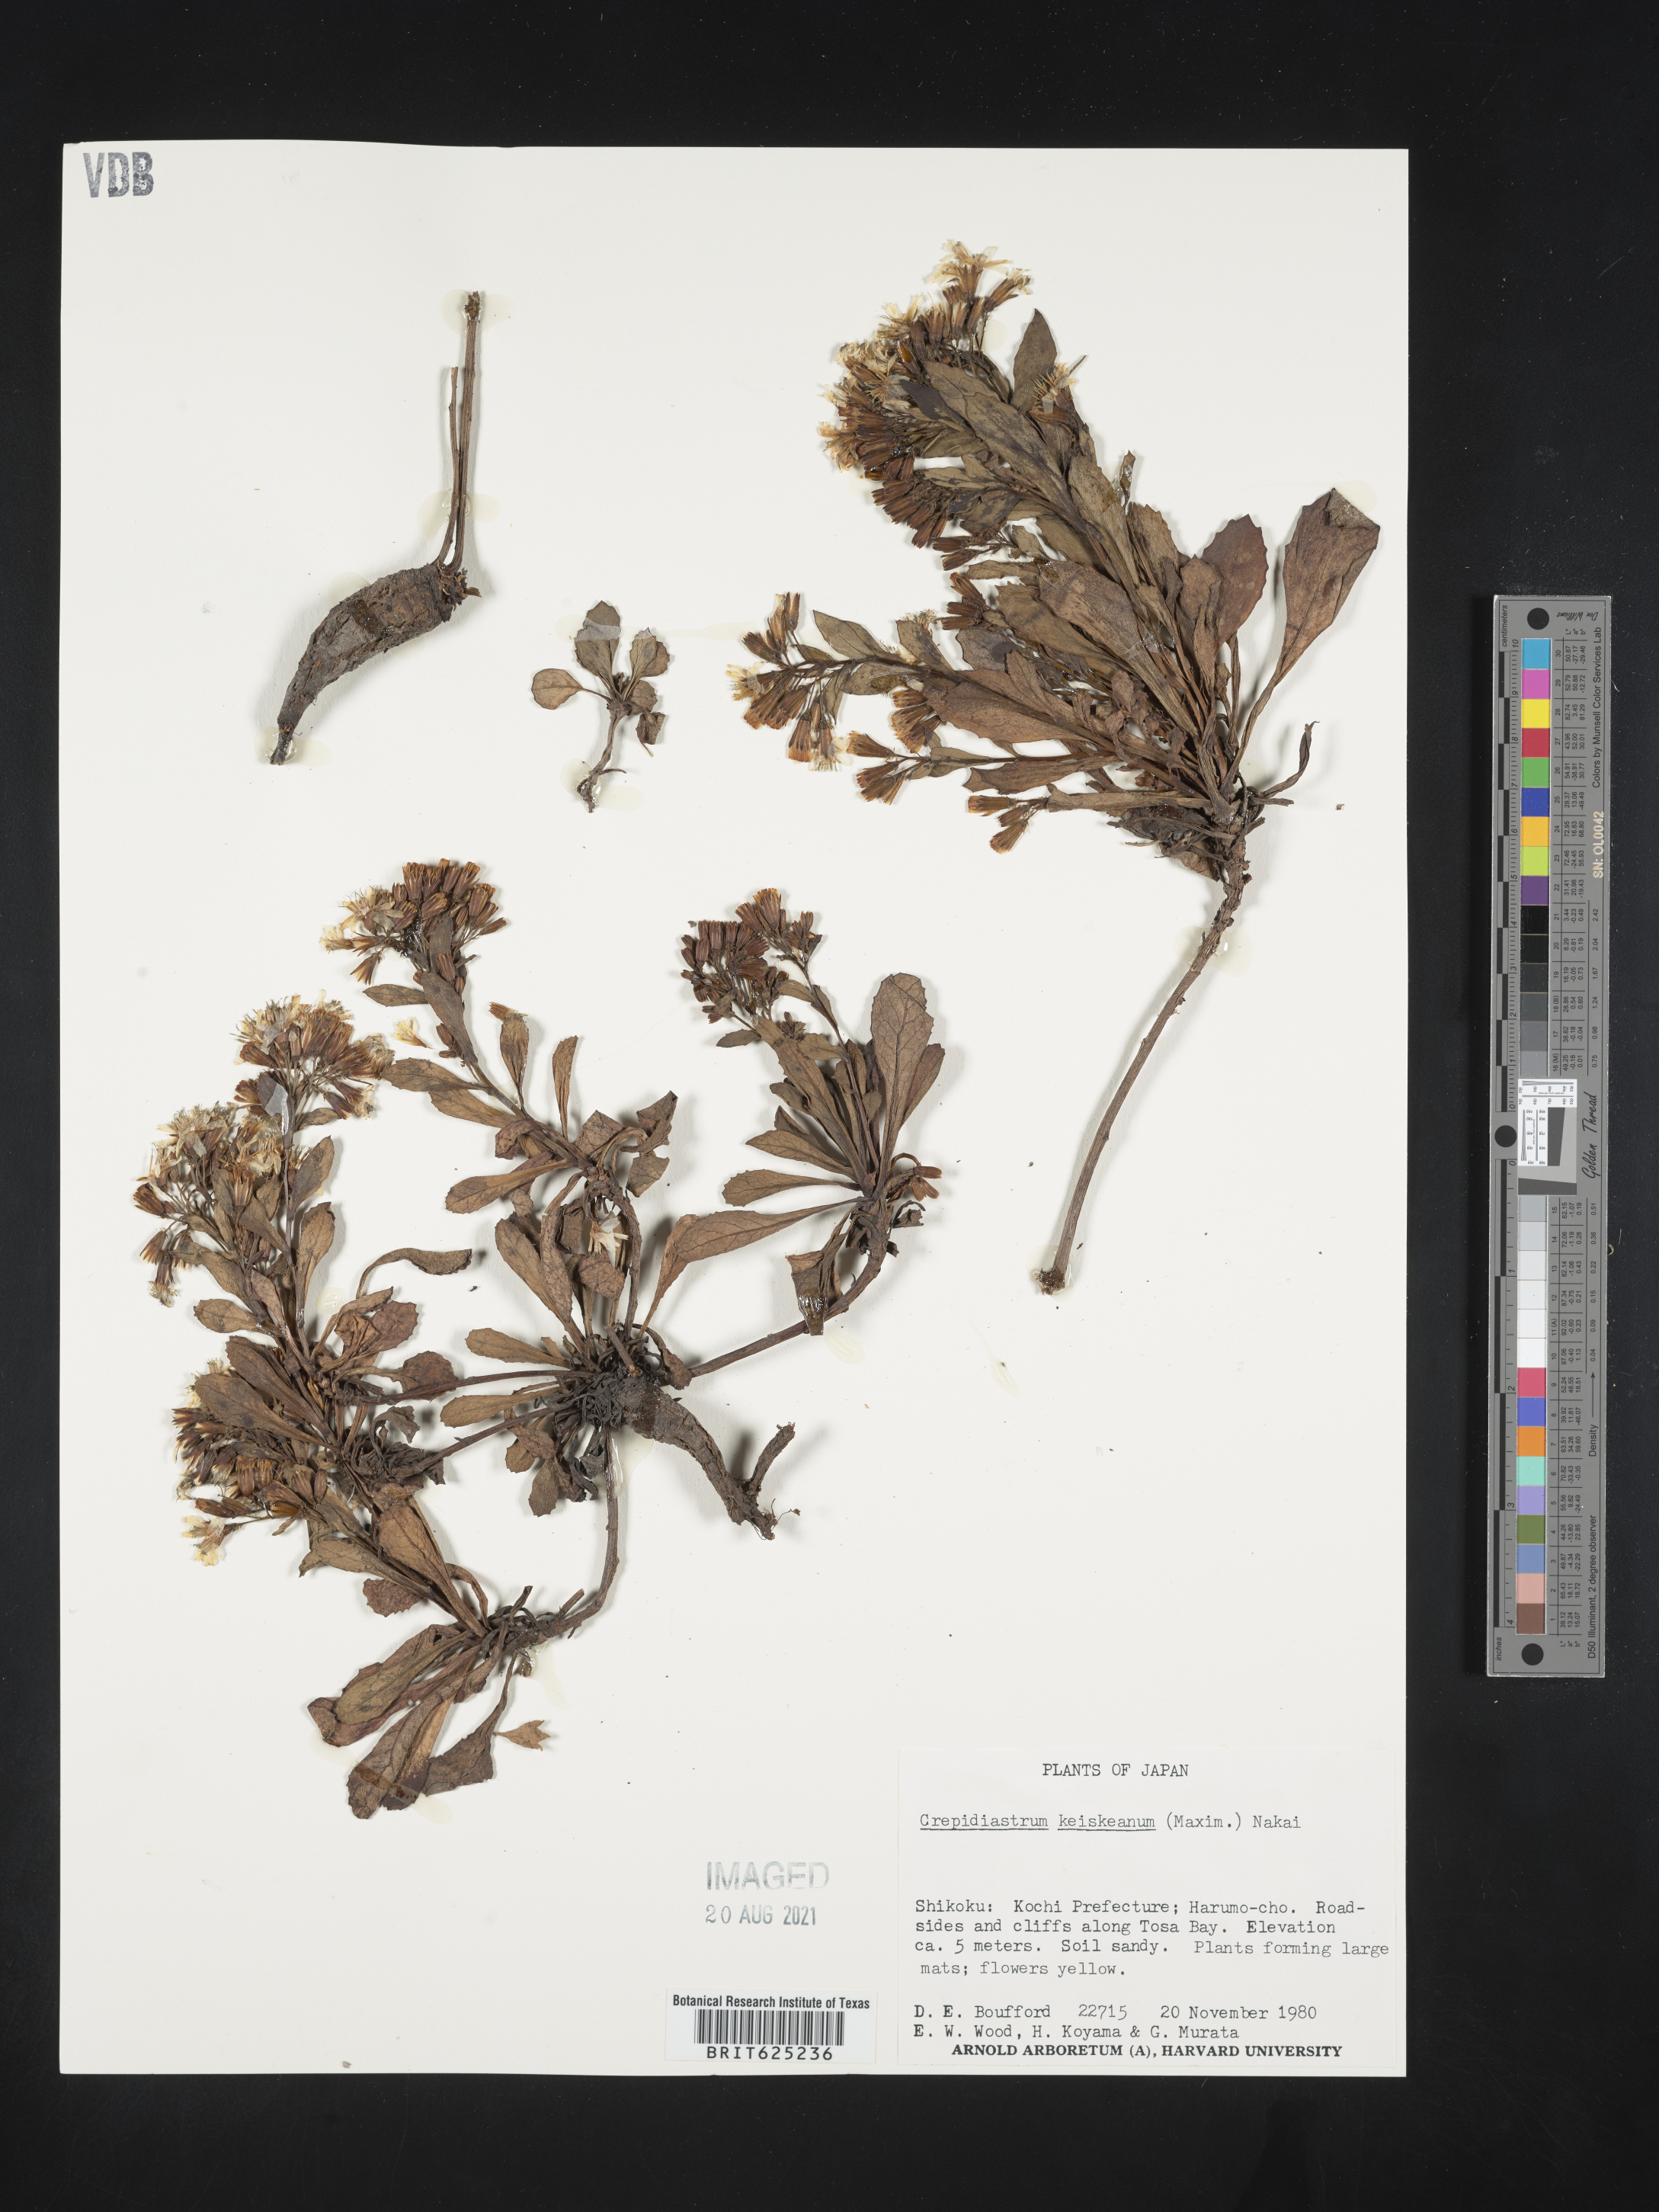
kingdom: Plantae
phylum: Tracheophyta
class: Magnoliopsida
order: Asterales
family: Asteraceae
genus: Crepidiastrum
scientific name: Crepidiastrum keiskeanum
